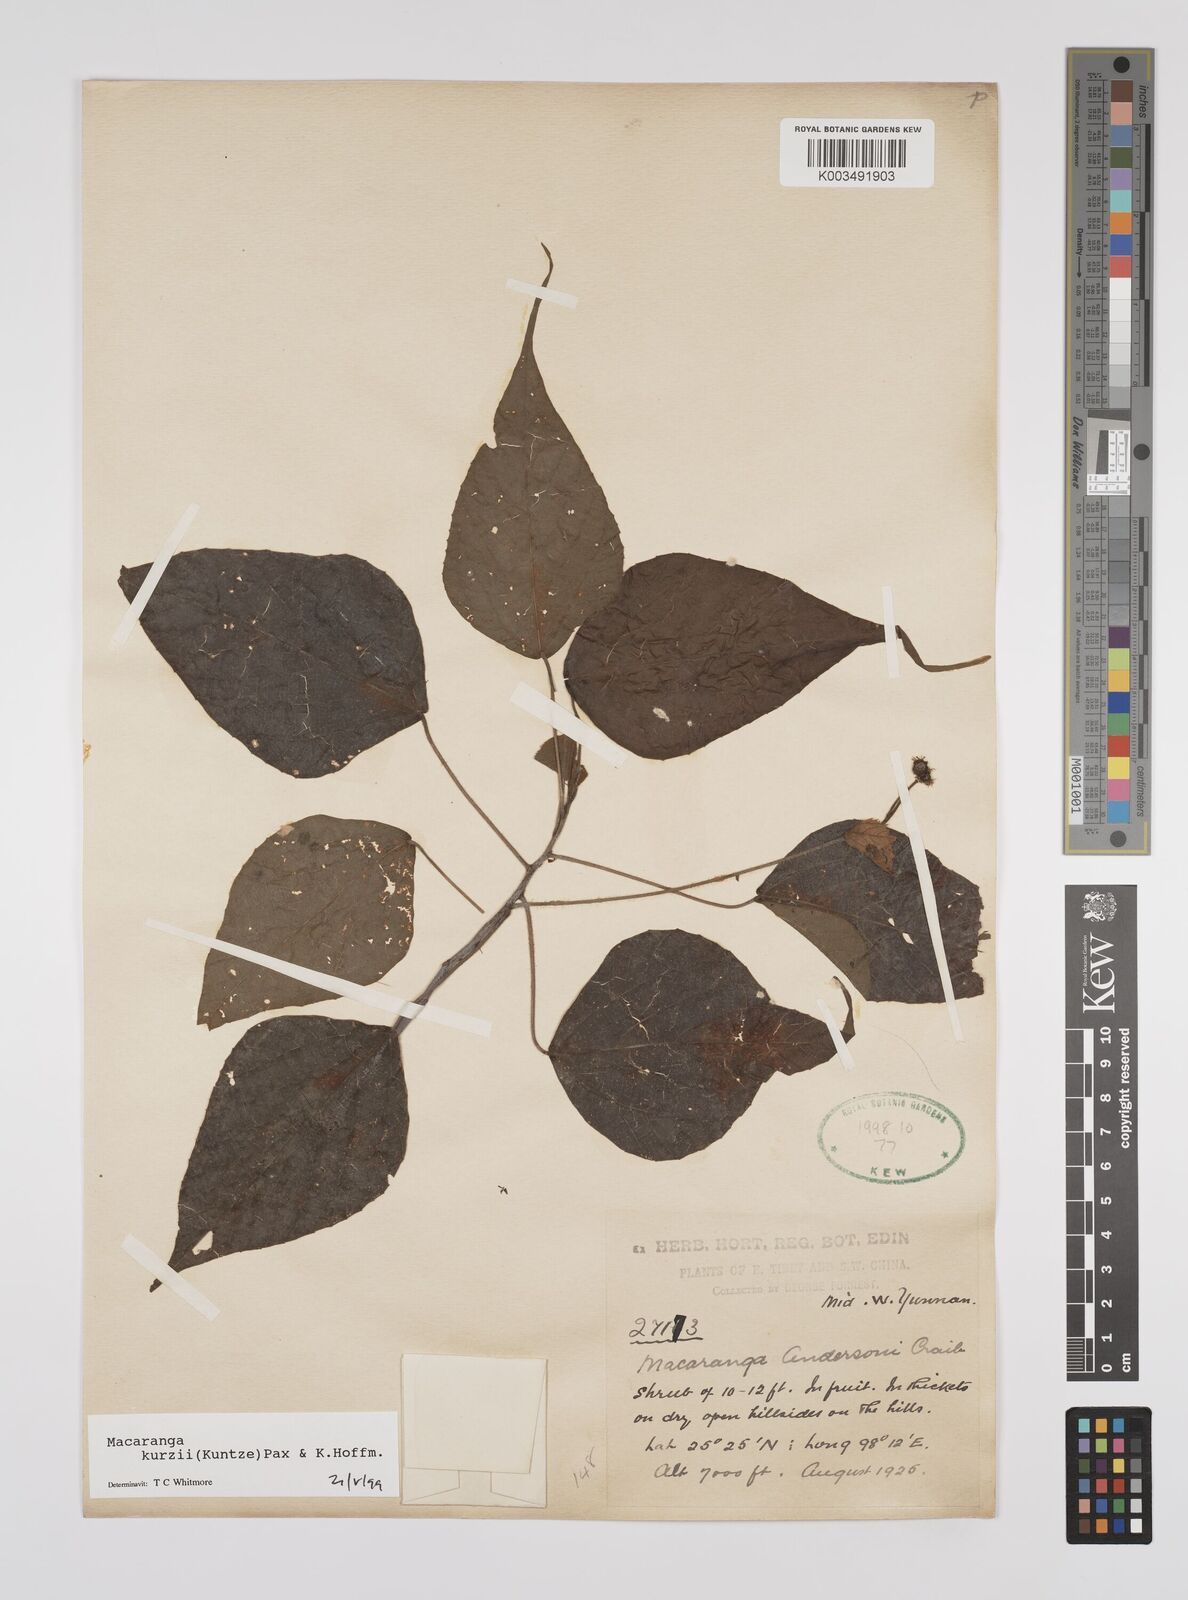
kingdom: Plantae
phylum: Tracheophyta
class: Magnoliopsida
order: Malpighiales
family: Euphorbiaceae
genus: Macaranga
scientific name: Macaranga kurzii
